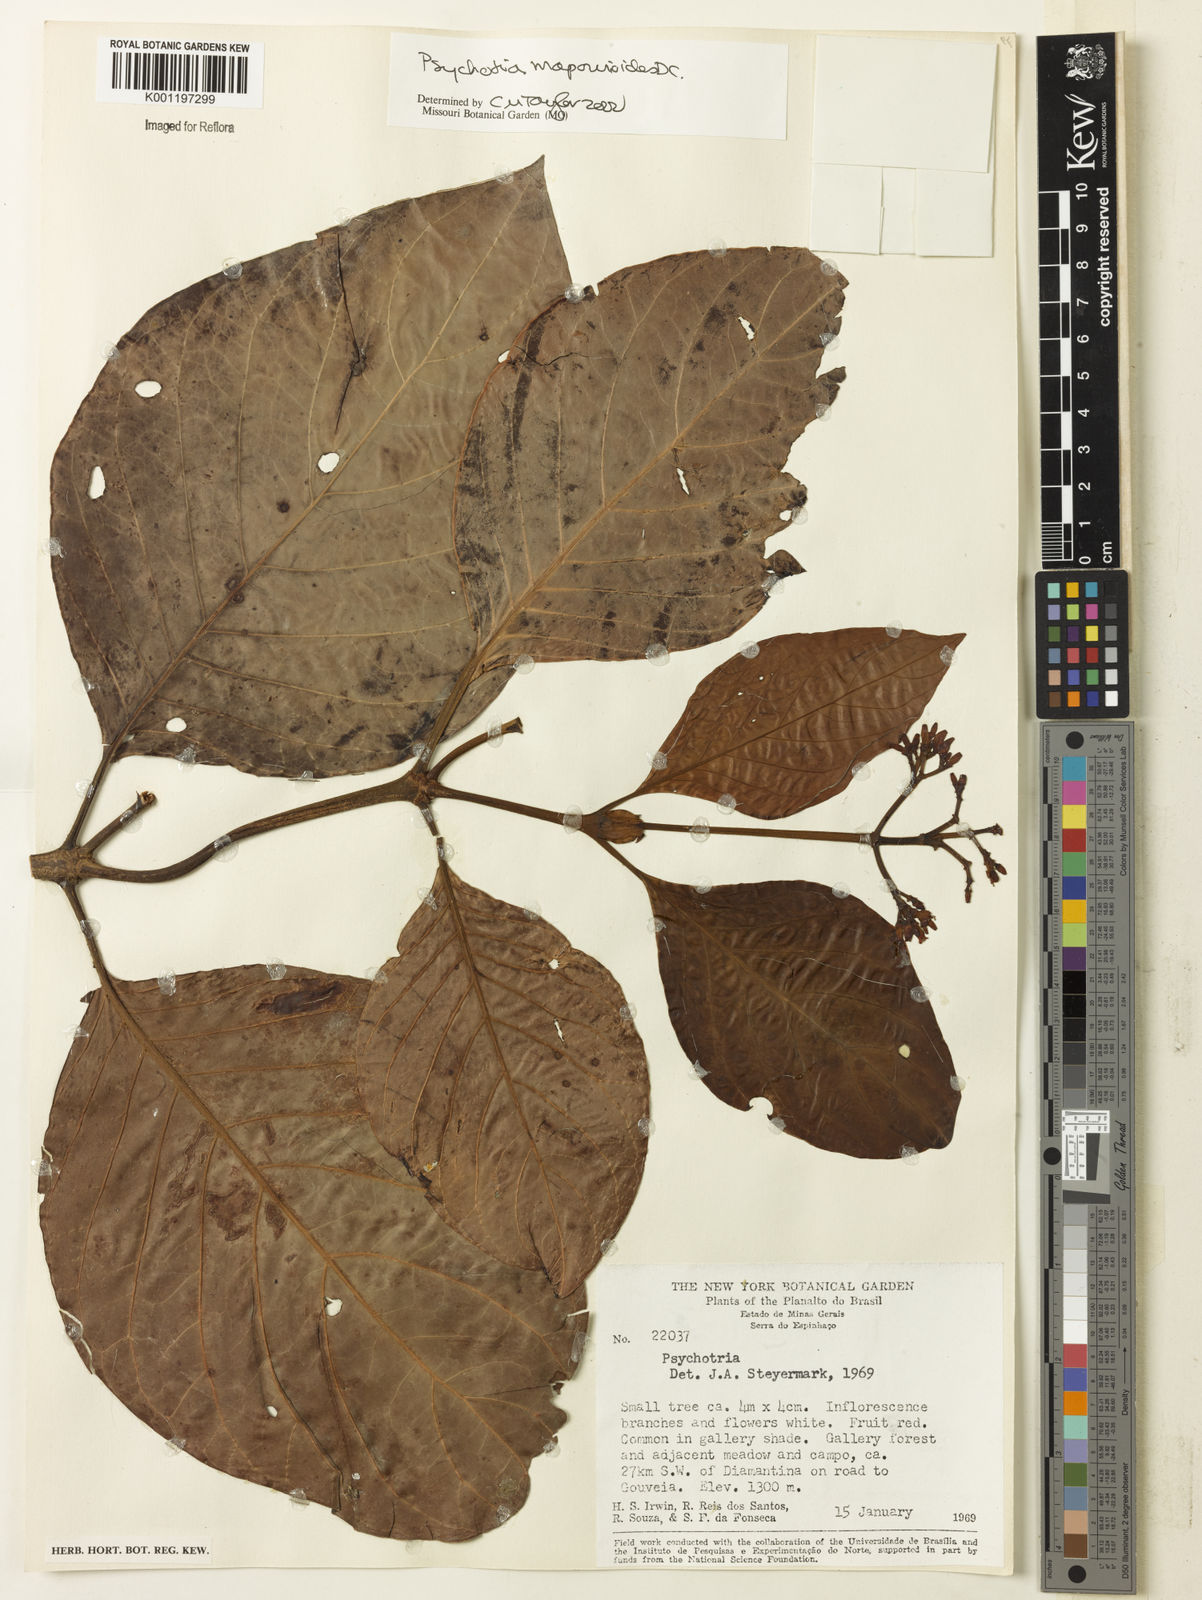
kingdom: Plantae
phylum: Tracheophyta
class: Magnoliopsida
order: Gentianales
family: Rubiaceae
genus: Psychotria
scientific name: Psychotria pedunculosa
